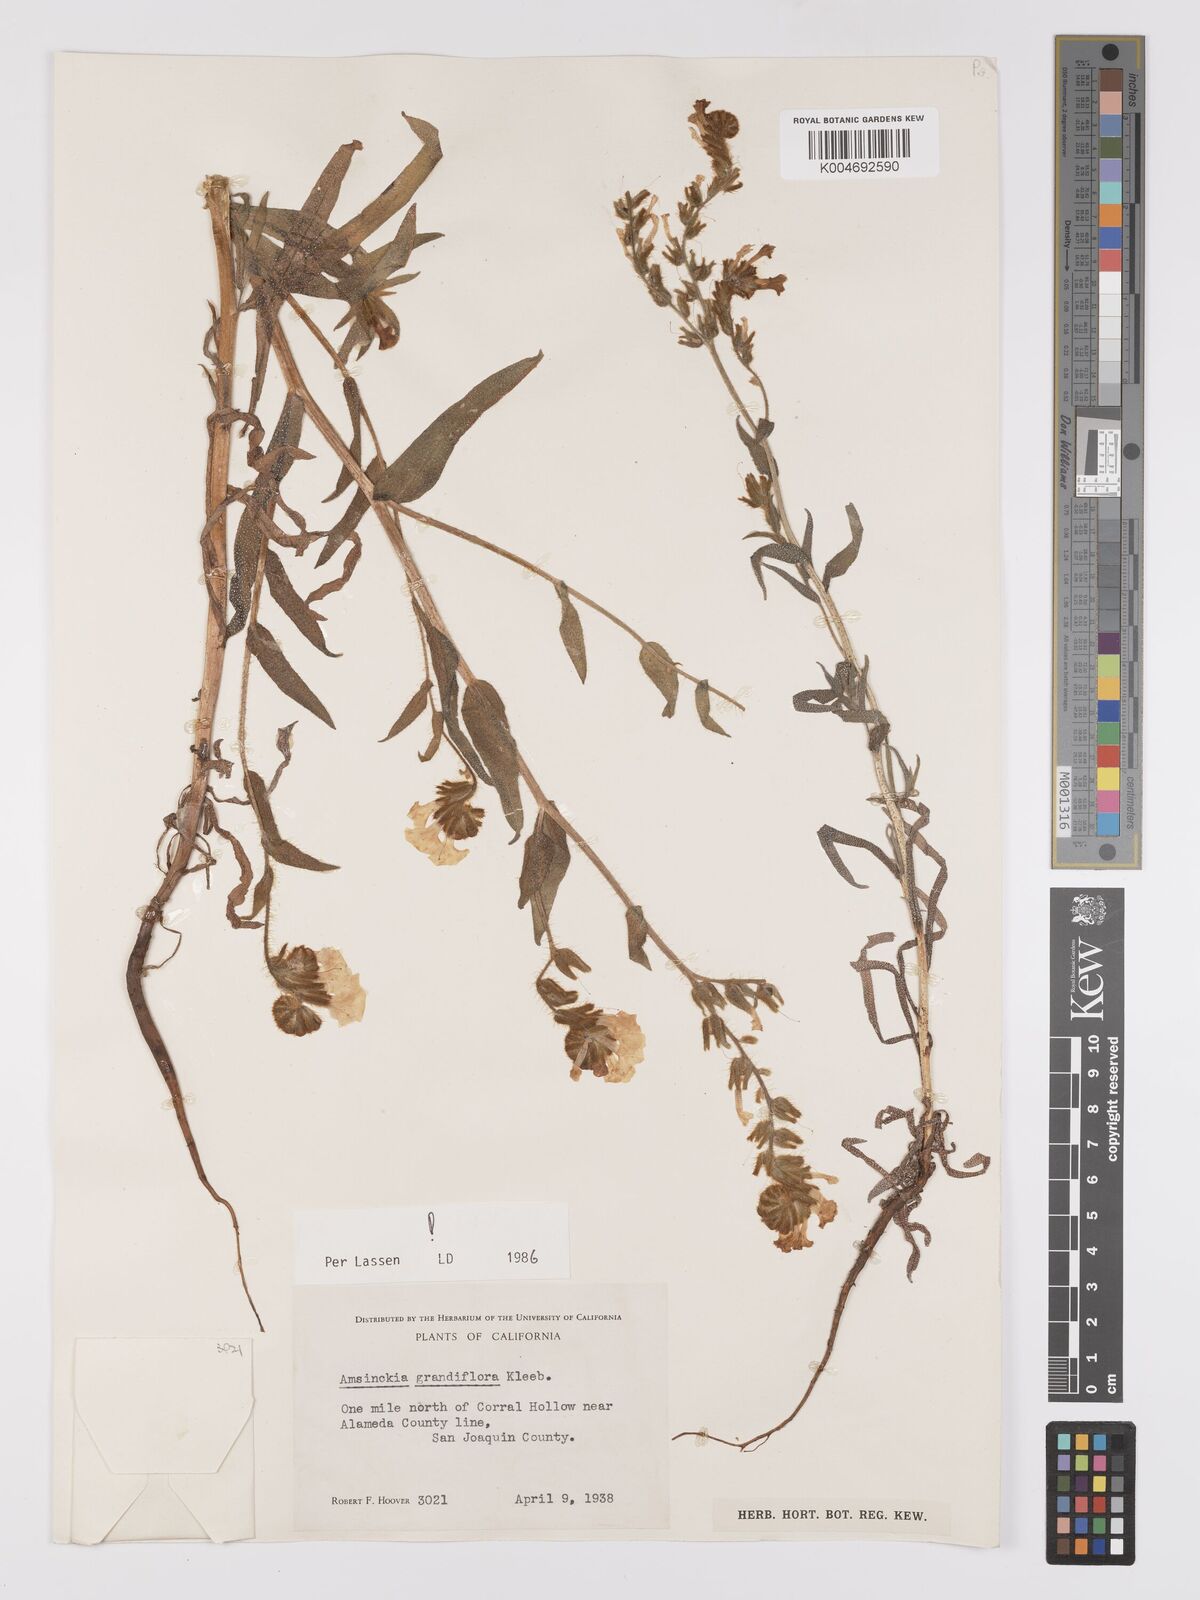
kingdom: Plantae
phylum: Tracheophyta
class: Magnoliopsida
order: Boraginales
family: Boraginaceae
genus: Amsinckia
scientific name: Amsinckia grandiflora
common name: Large-flower fiddleneck
